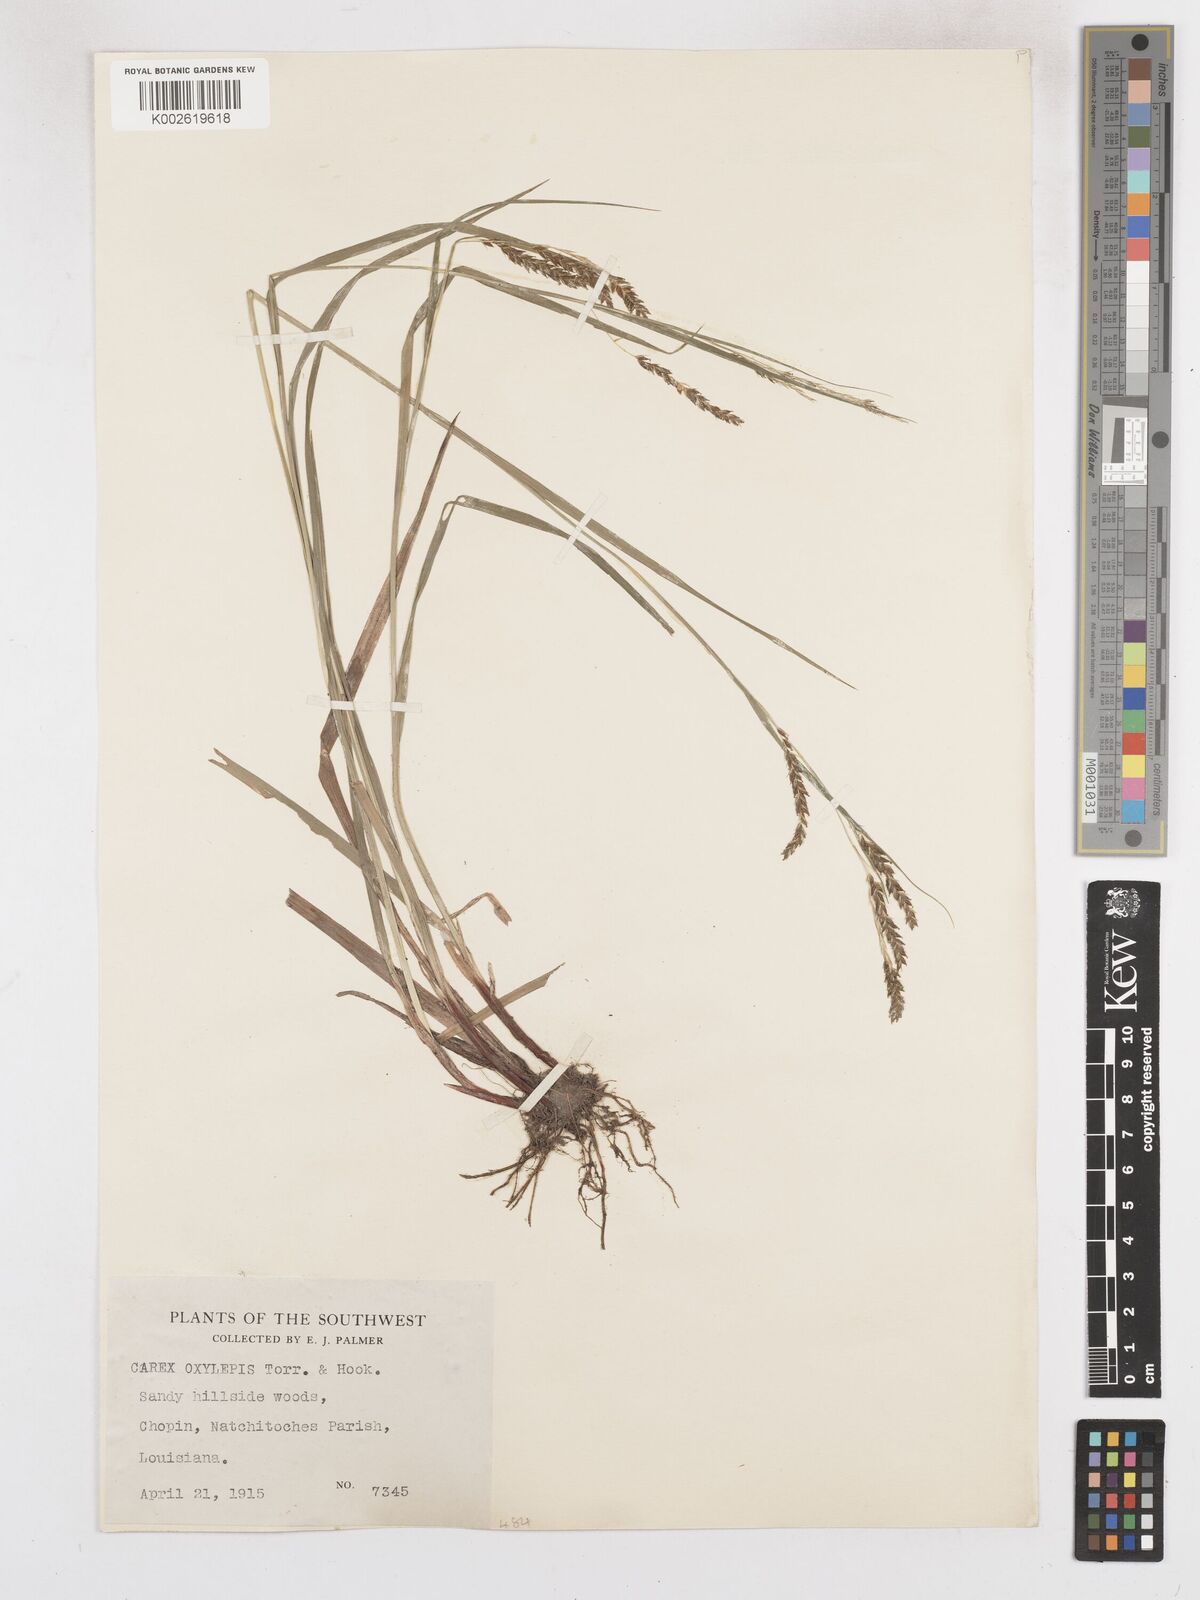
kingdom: Plantae
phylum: Tracheophyta
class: Liliopsida
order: Poales
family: Cyperaceae
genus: Carex
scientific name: Carex oxylepis
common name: Sharpscale sedge
